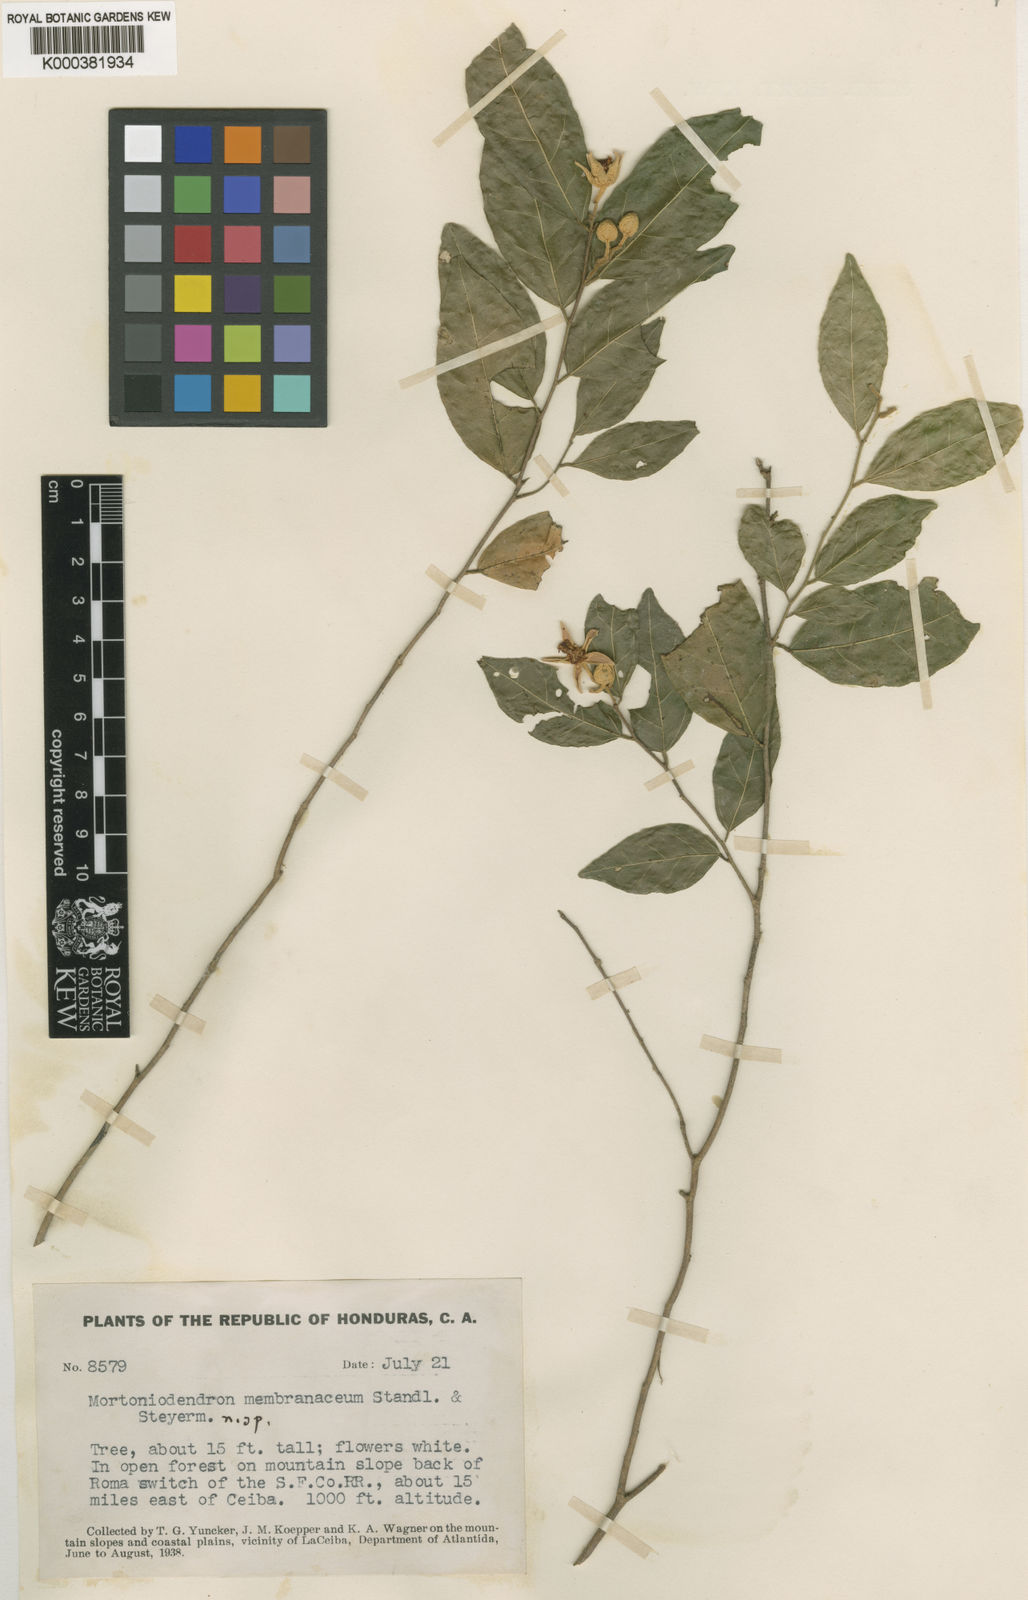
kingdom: Plantae
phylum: Tracheophyta
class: Magnoliopsida
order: Malvales
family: Malvaceae
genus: Mortoniodendron
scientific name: Mortoniodendron membranaceum
